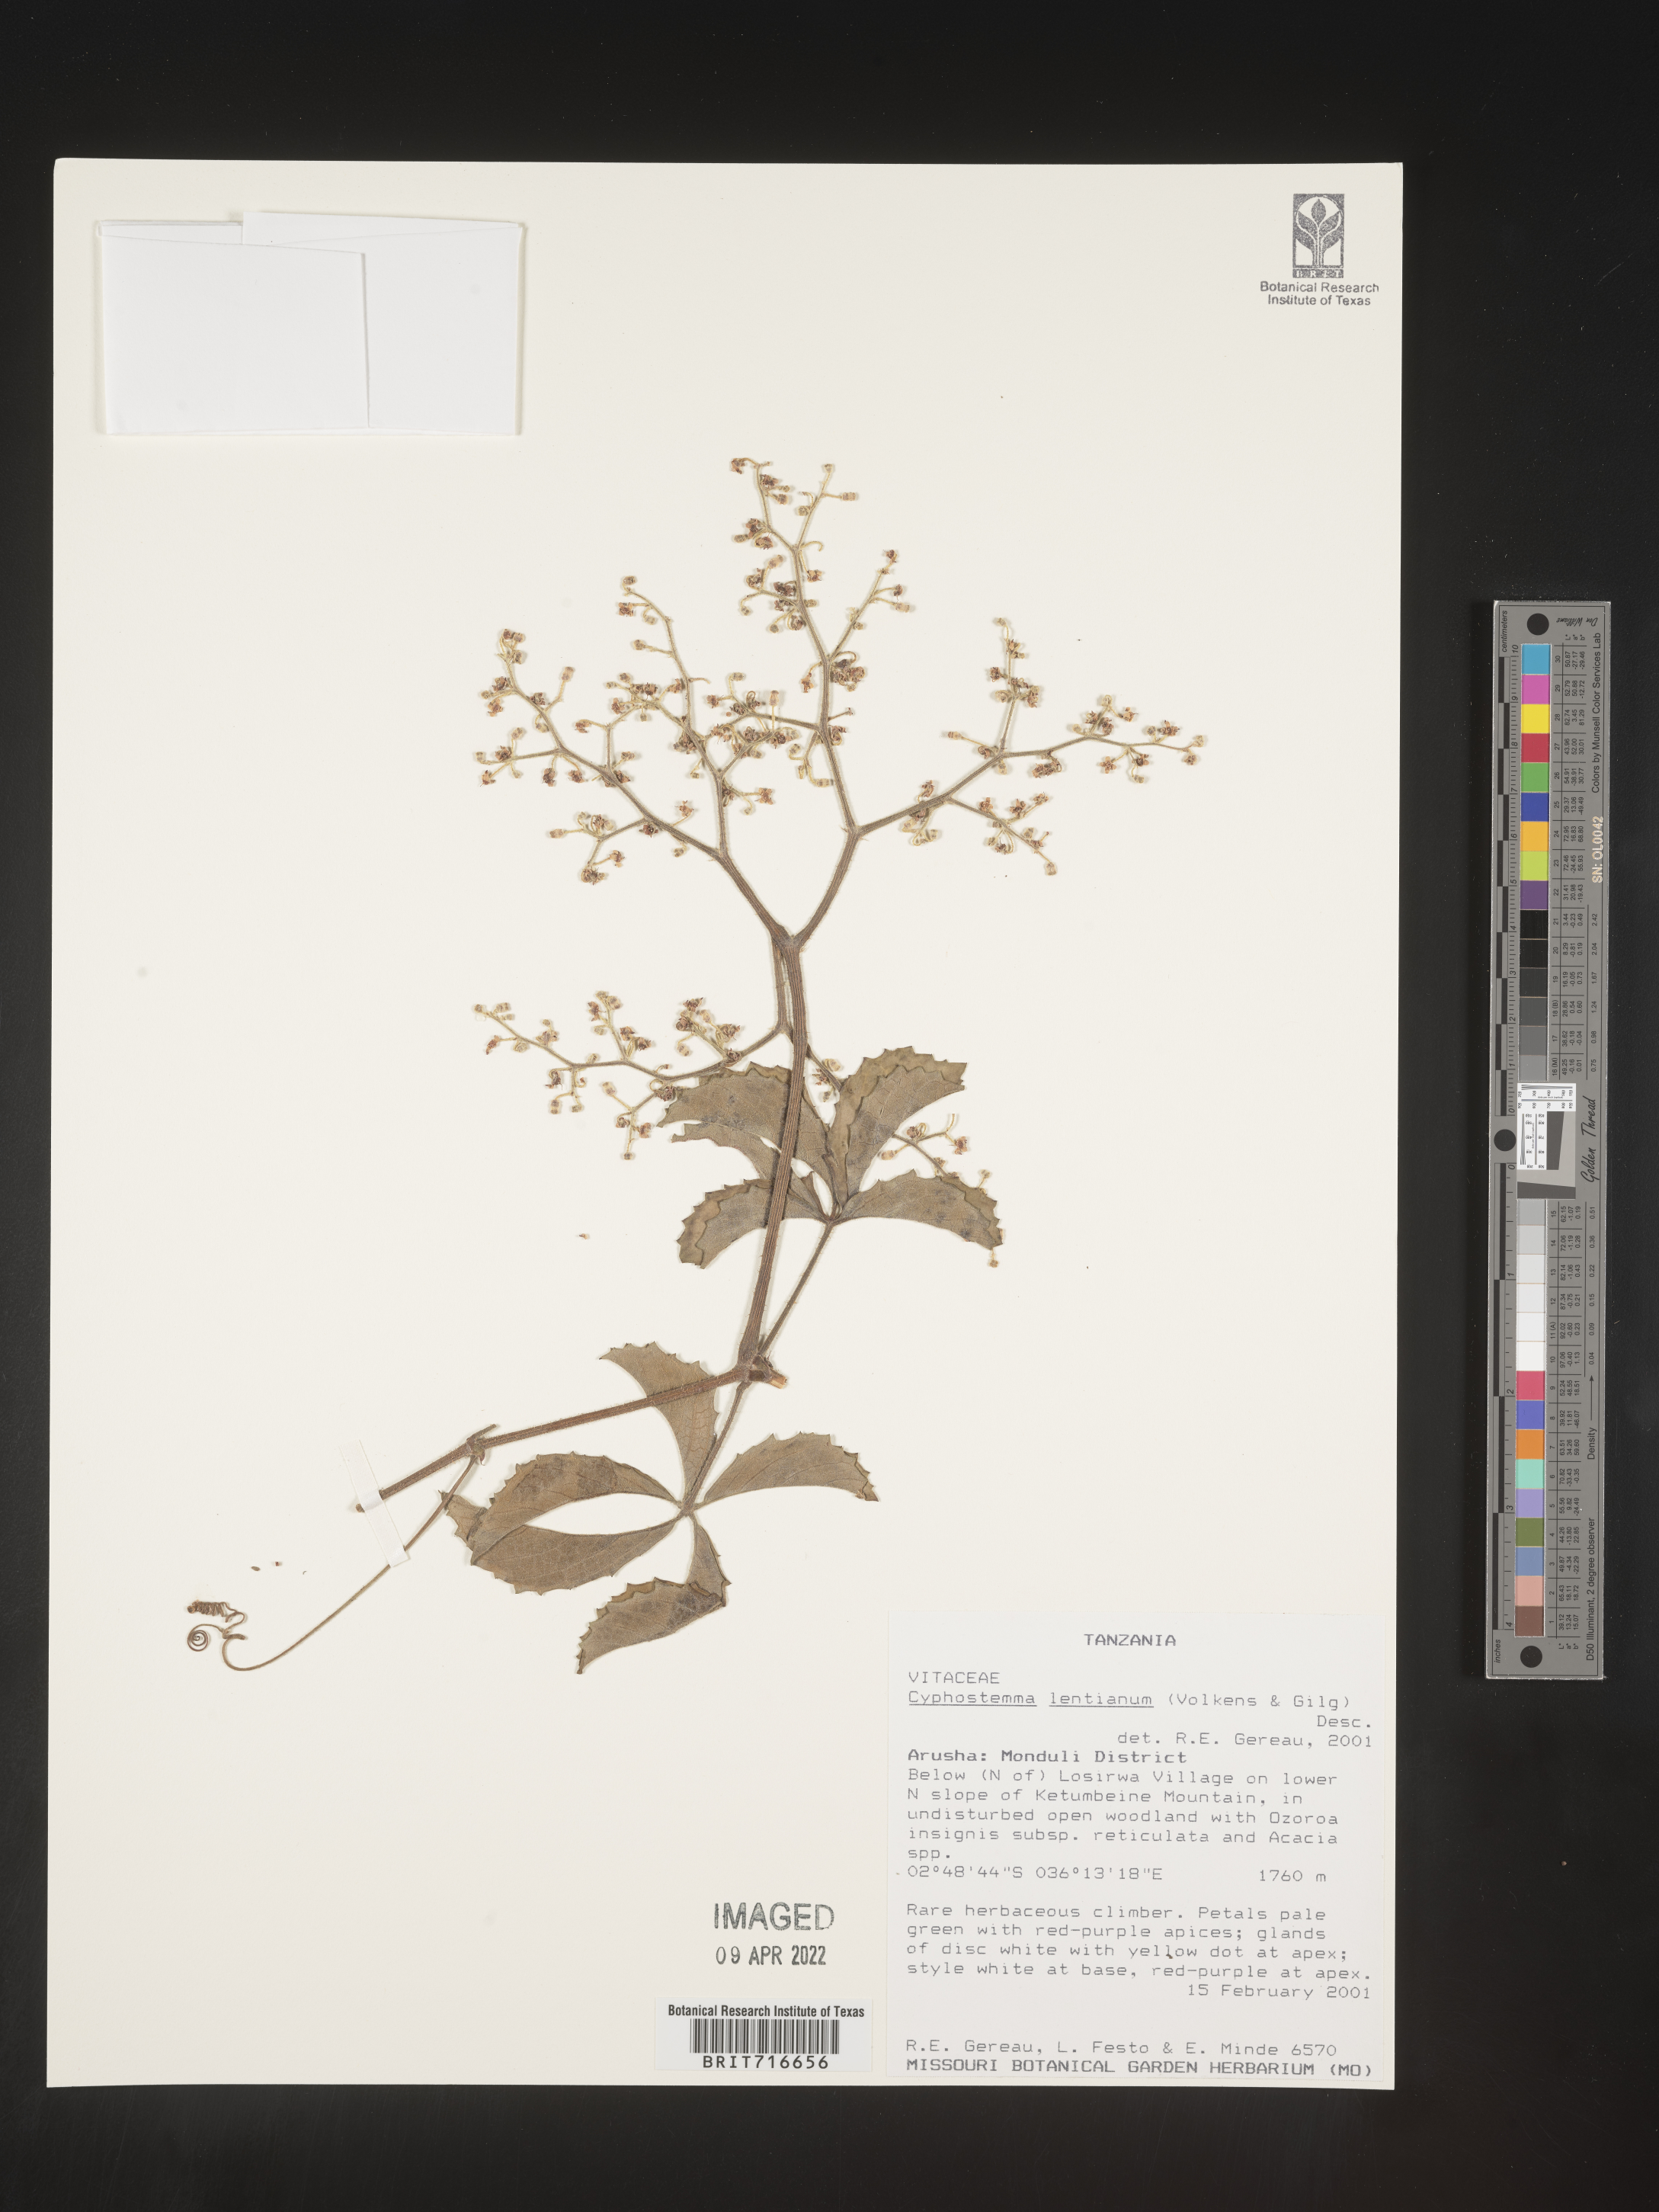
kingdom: Plantae
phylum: Tracheophyta
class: Magnoliopsida
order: Vitales
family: Vitaceae
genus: Cyphostemma
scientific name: Cyphostemma
